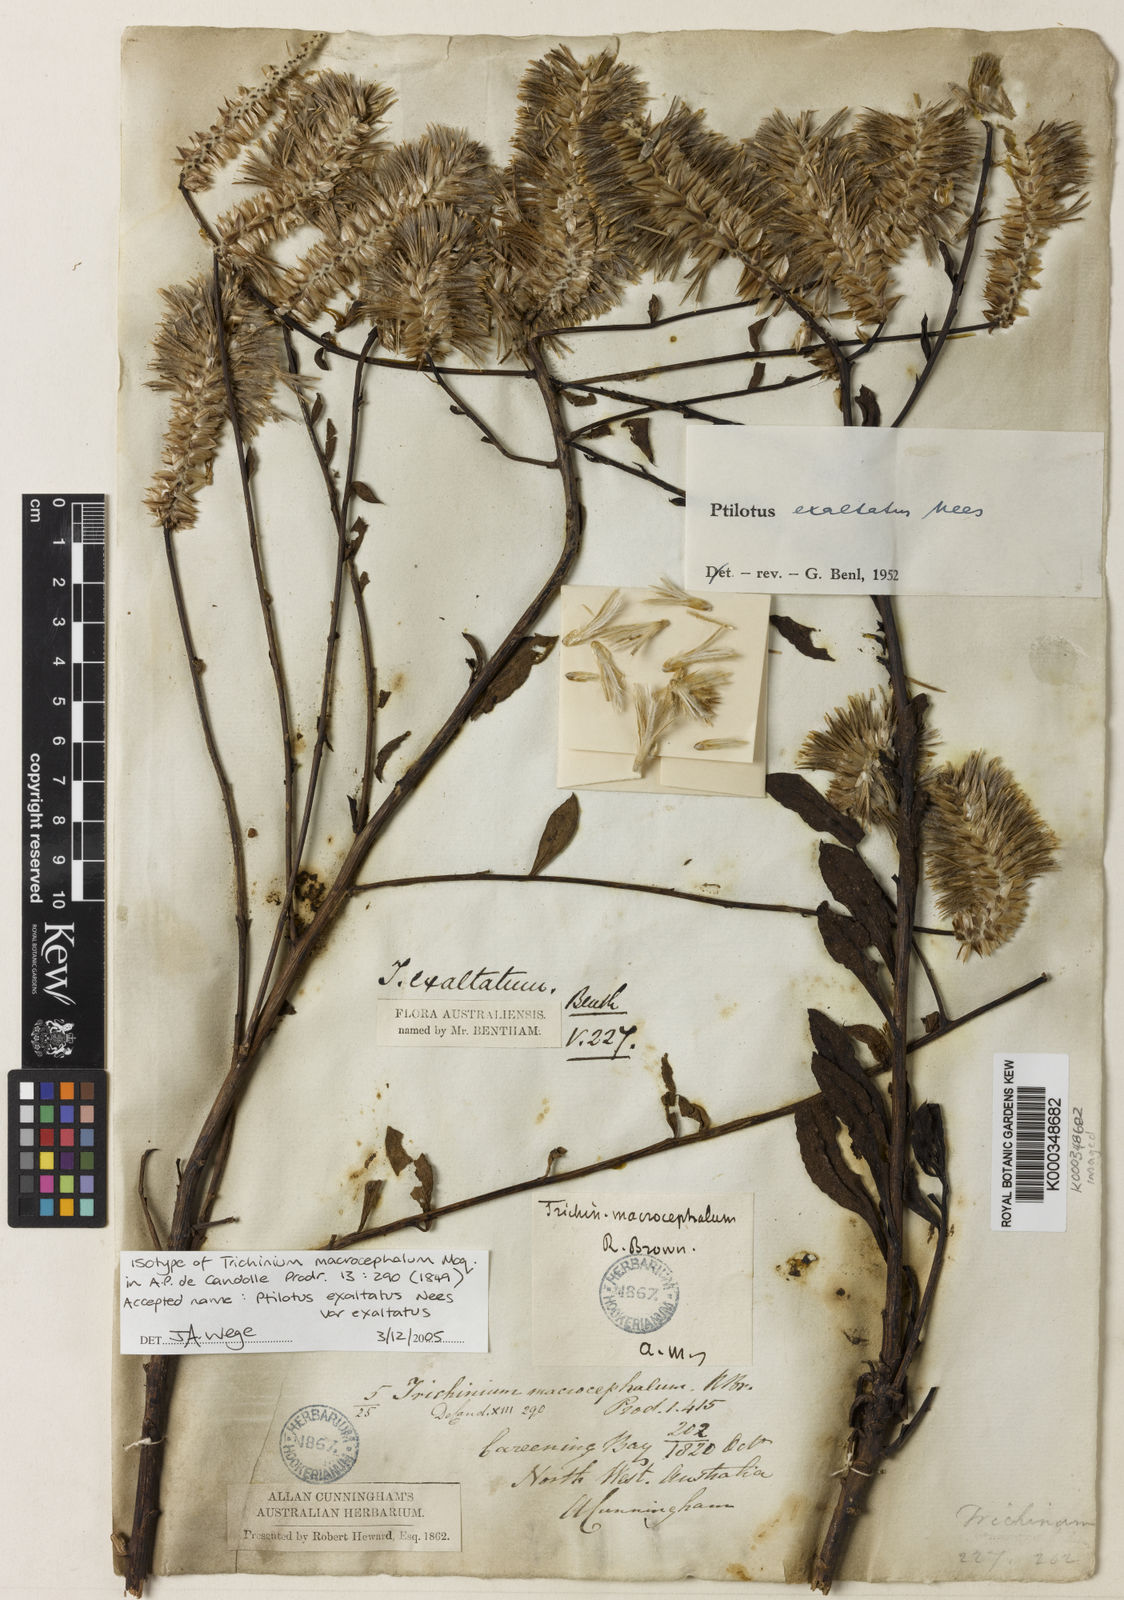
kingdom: Plantae
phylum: Tracheophyta
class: Magnoliopsida
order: Caryophyllales
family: Amaranthaceae
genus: Ptilotus
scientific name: Ptilotus macrocephalus
